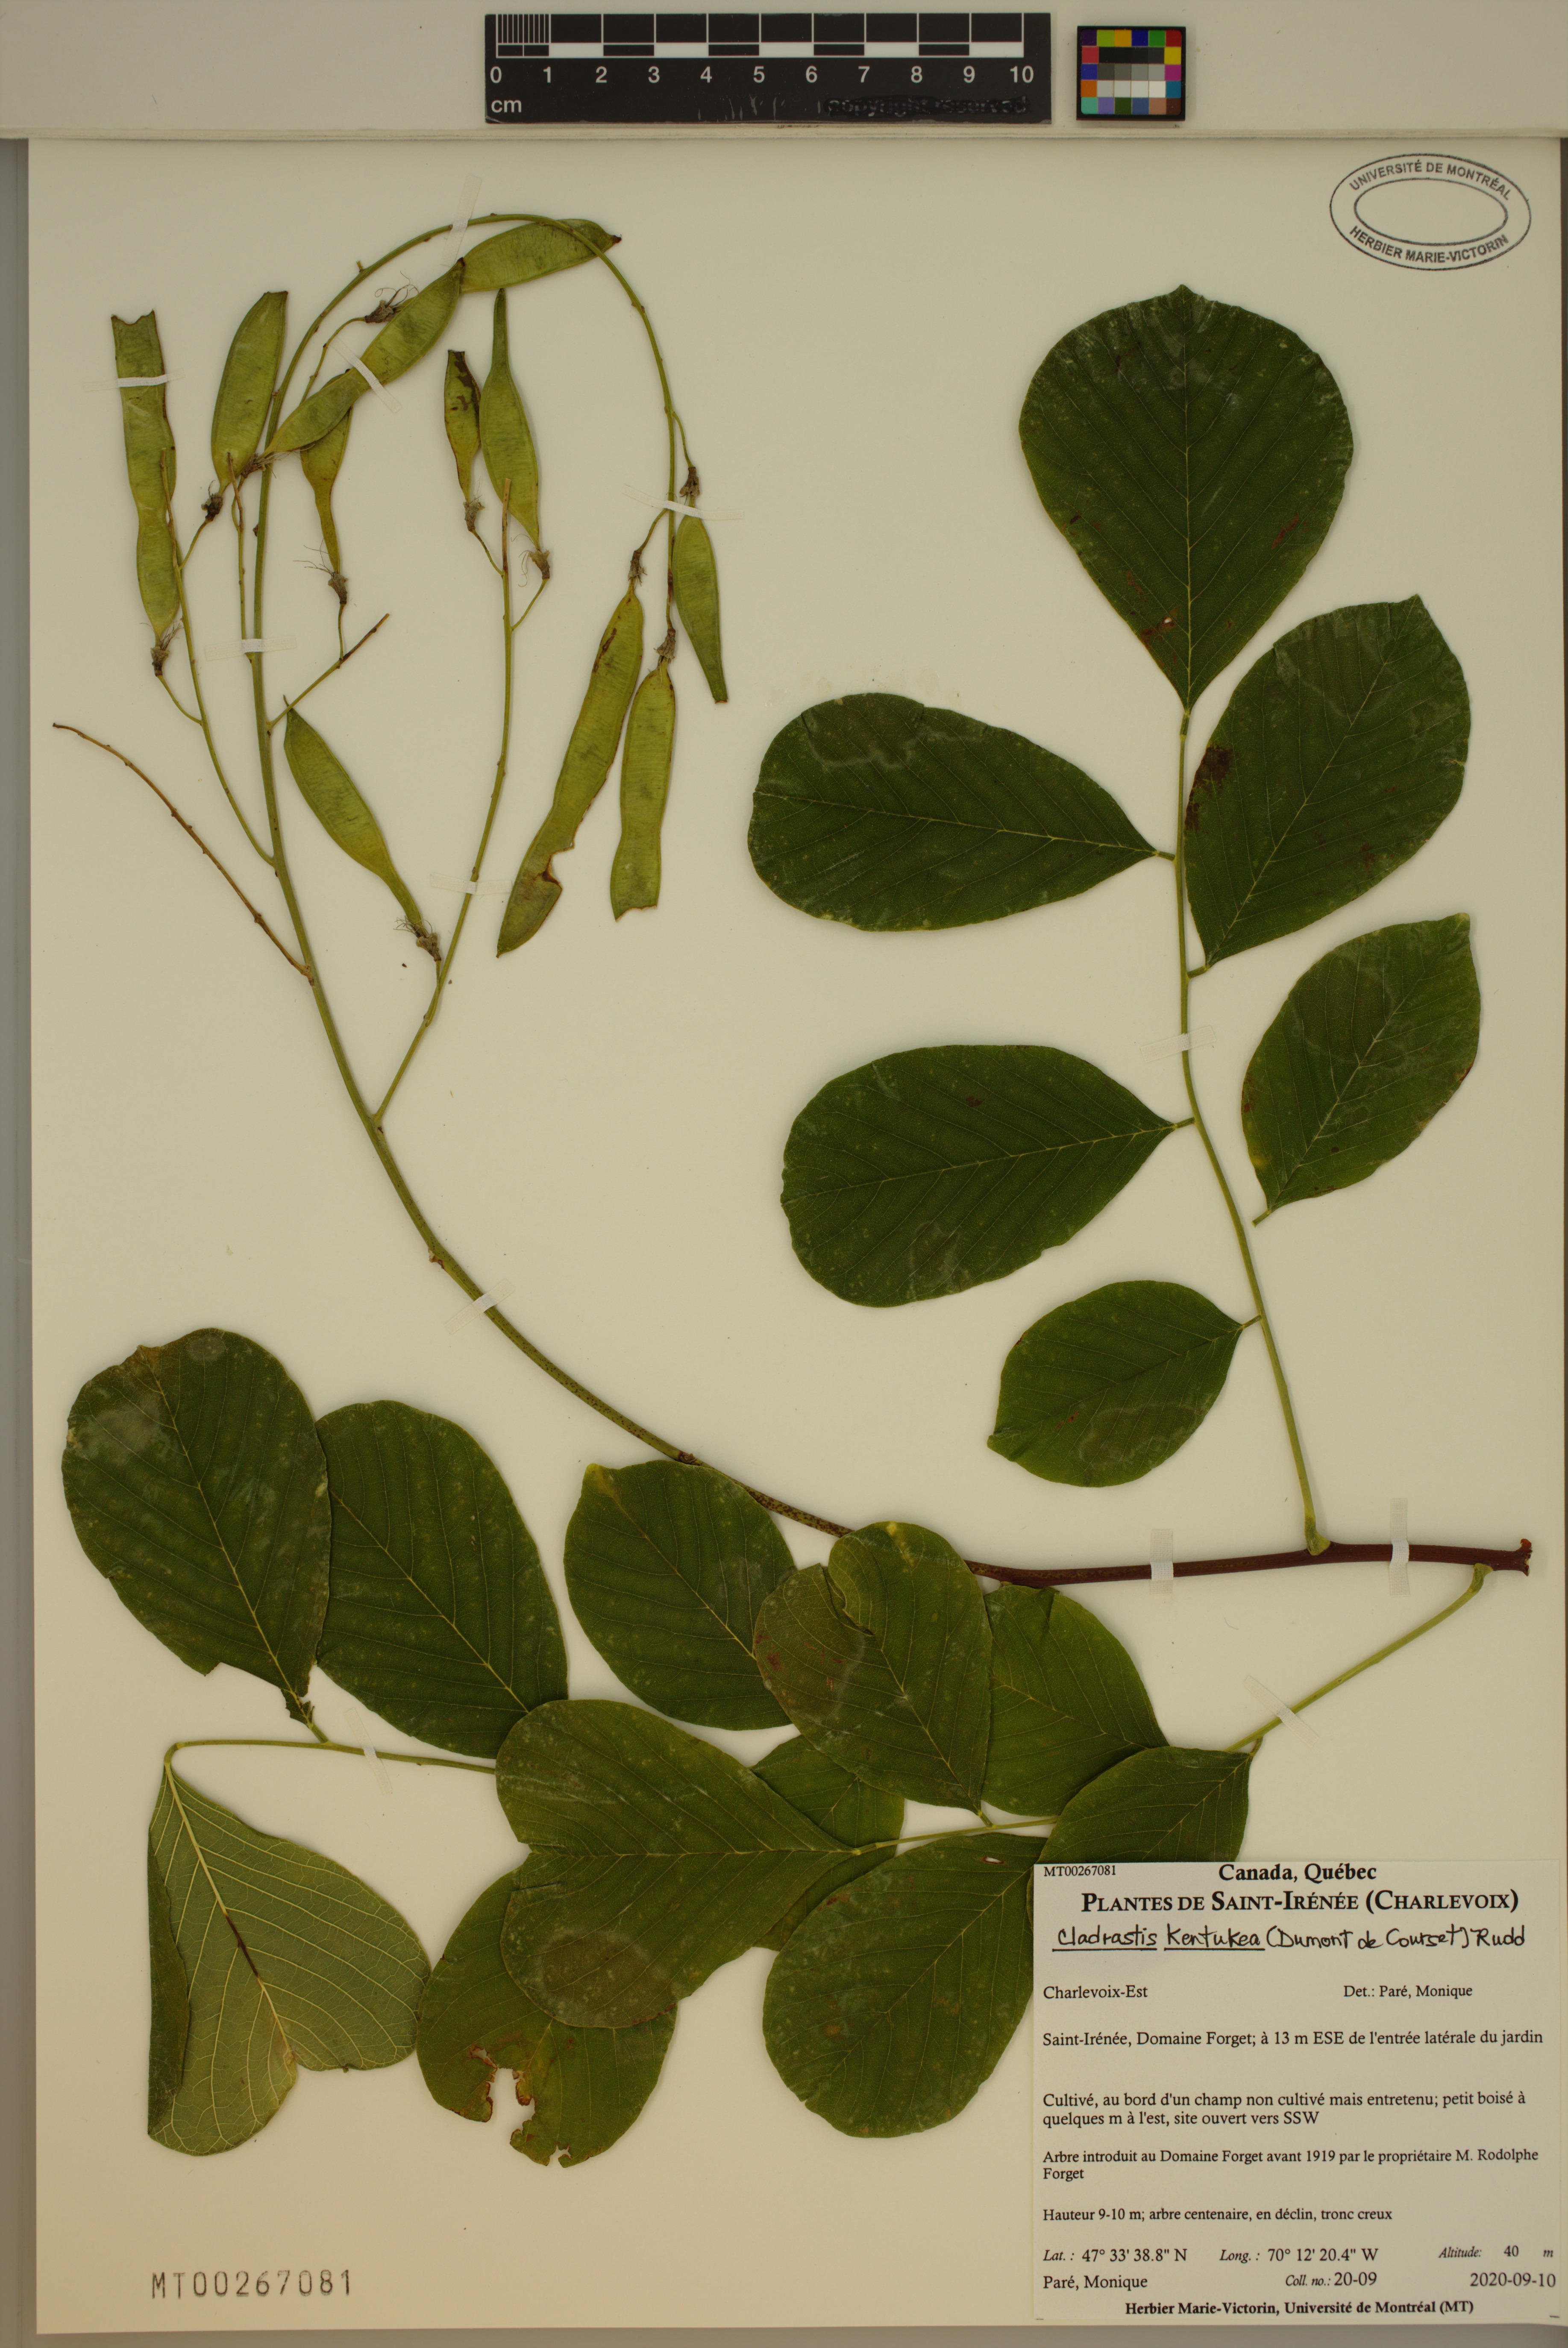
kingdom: Plantae
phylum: Tracheophyta
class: Magnoliopsida
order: Fabales
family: Fabaceae
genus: Cladrastis
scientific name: Cladrastis kentukea
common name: Kentucky yellow-wood
